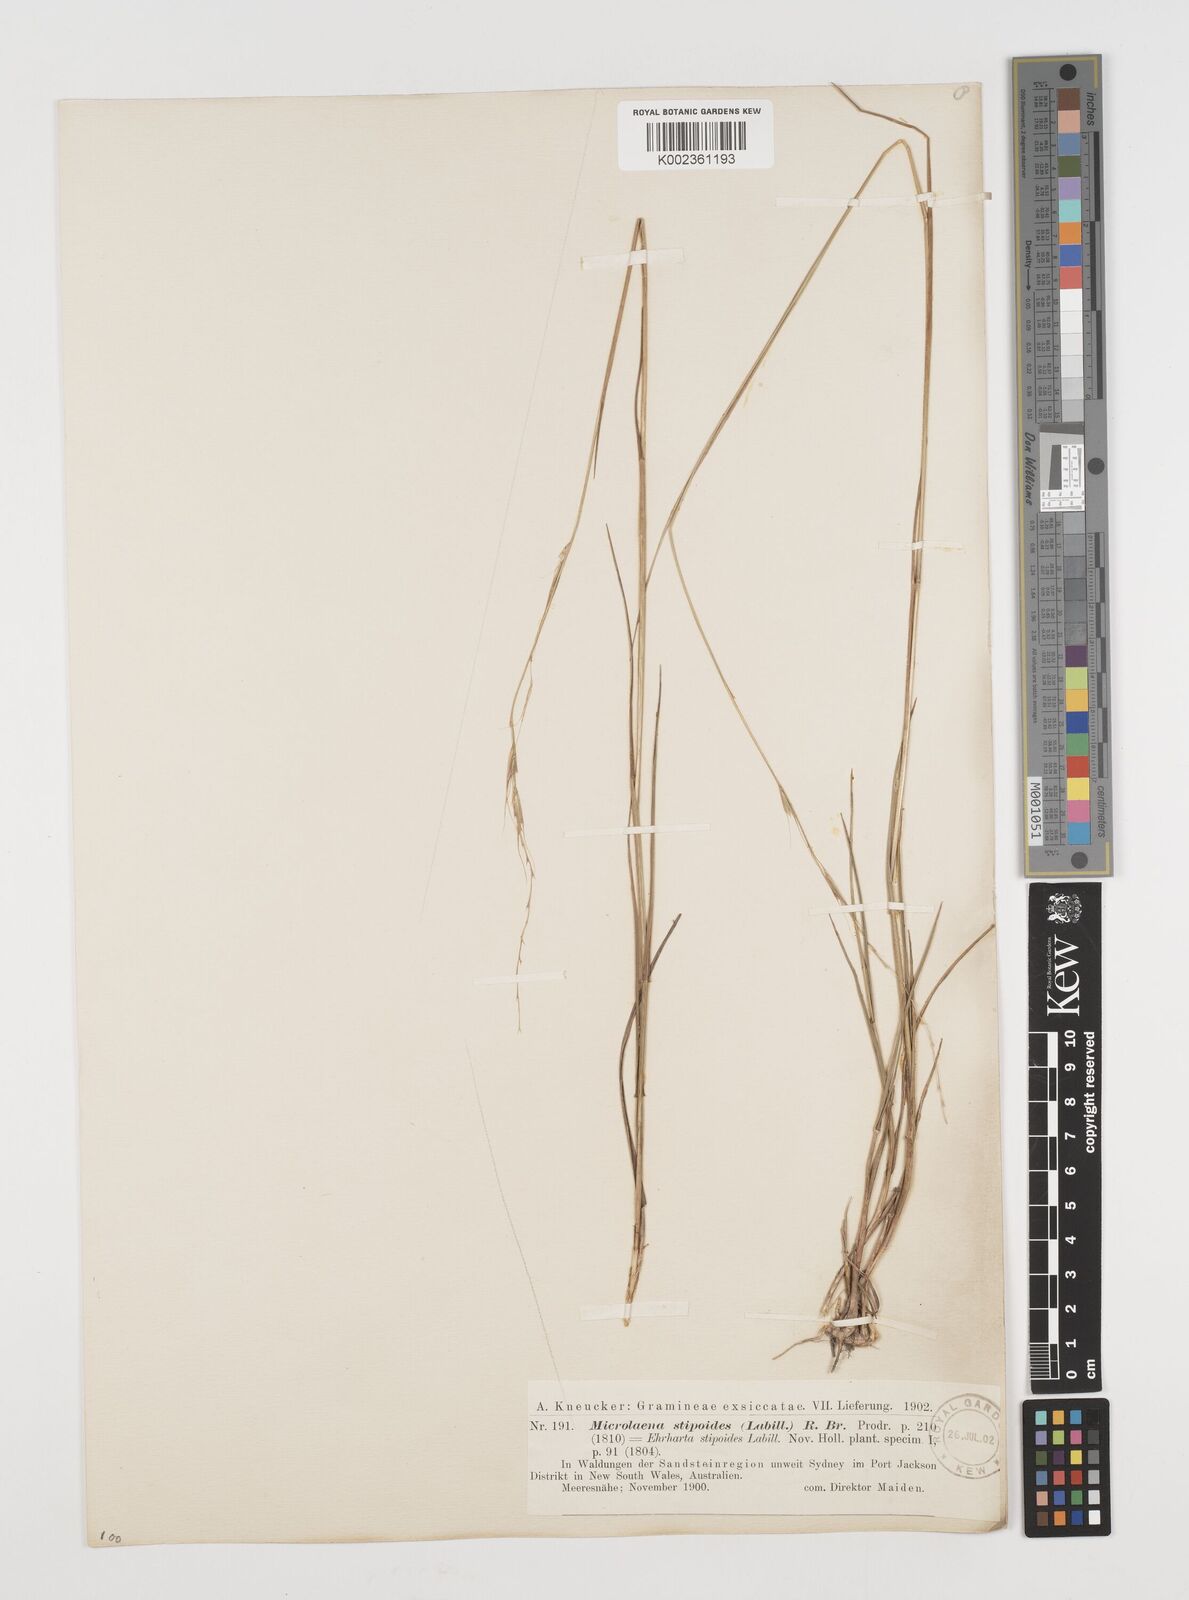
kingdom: Plantae
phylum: Tracheophyta
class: Liliopsida
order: Poales
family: Poaceae
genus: Microlaena
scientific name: Microlaena stipoides
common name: Meadow ricegrass
